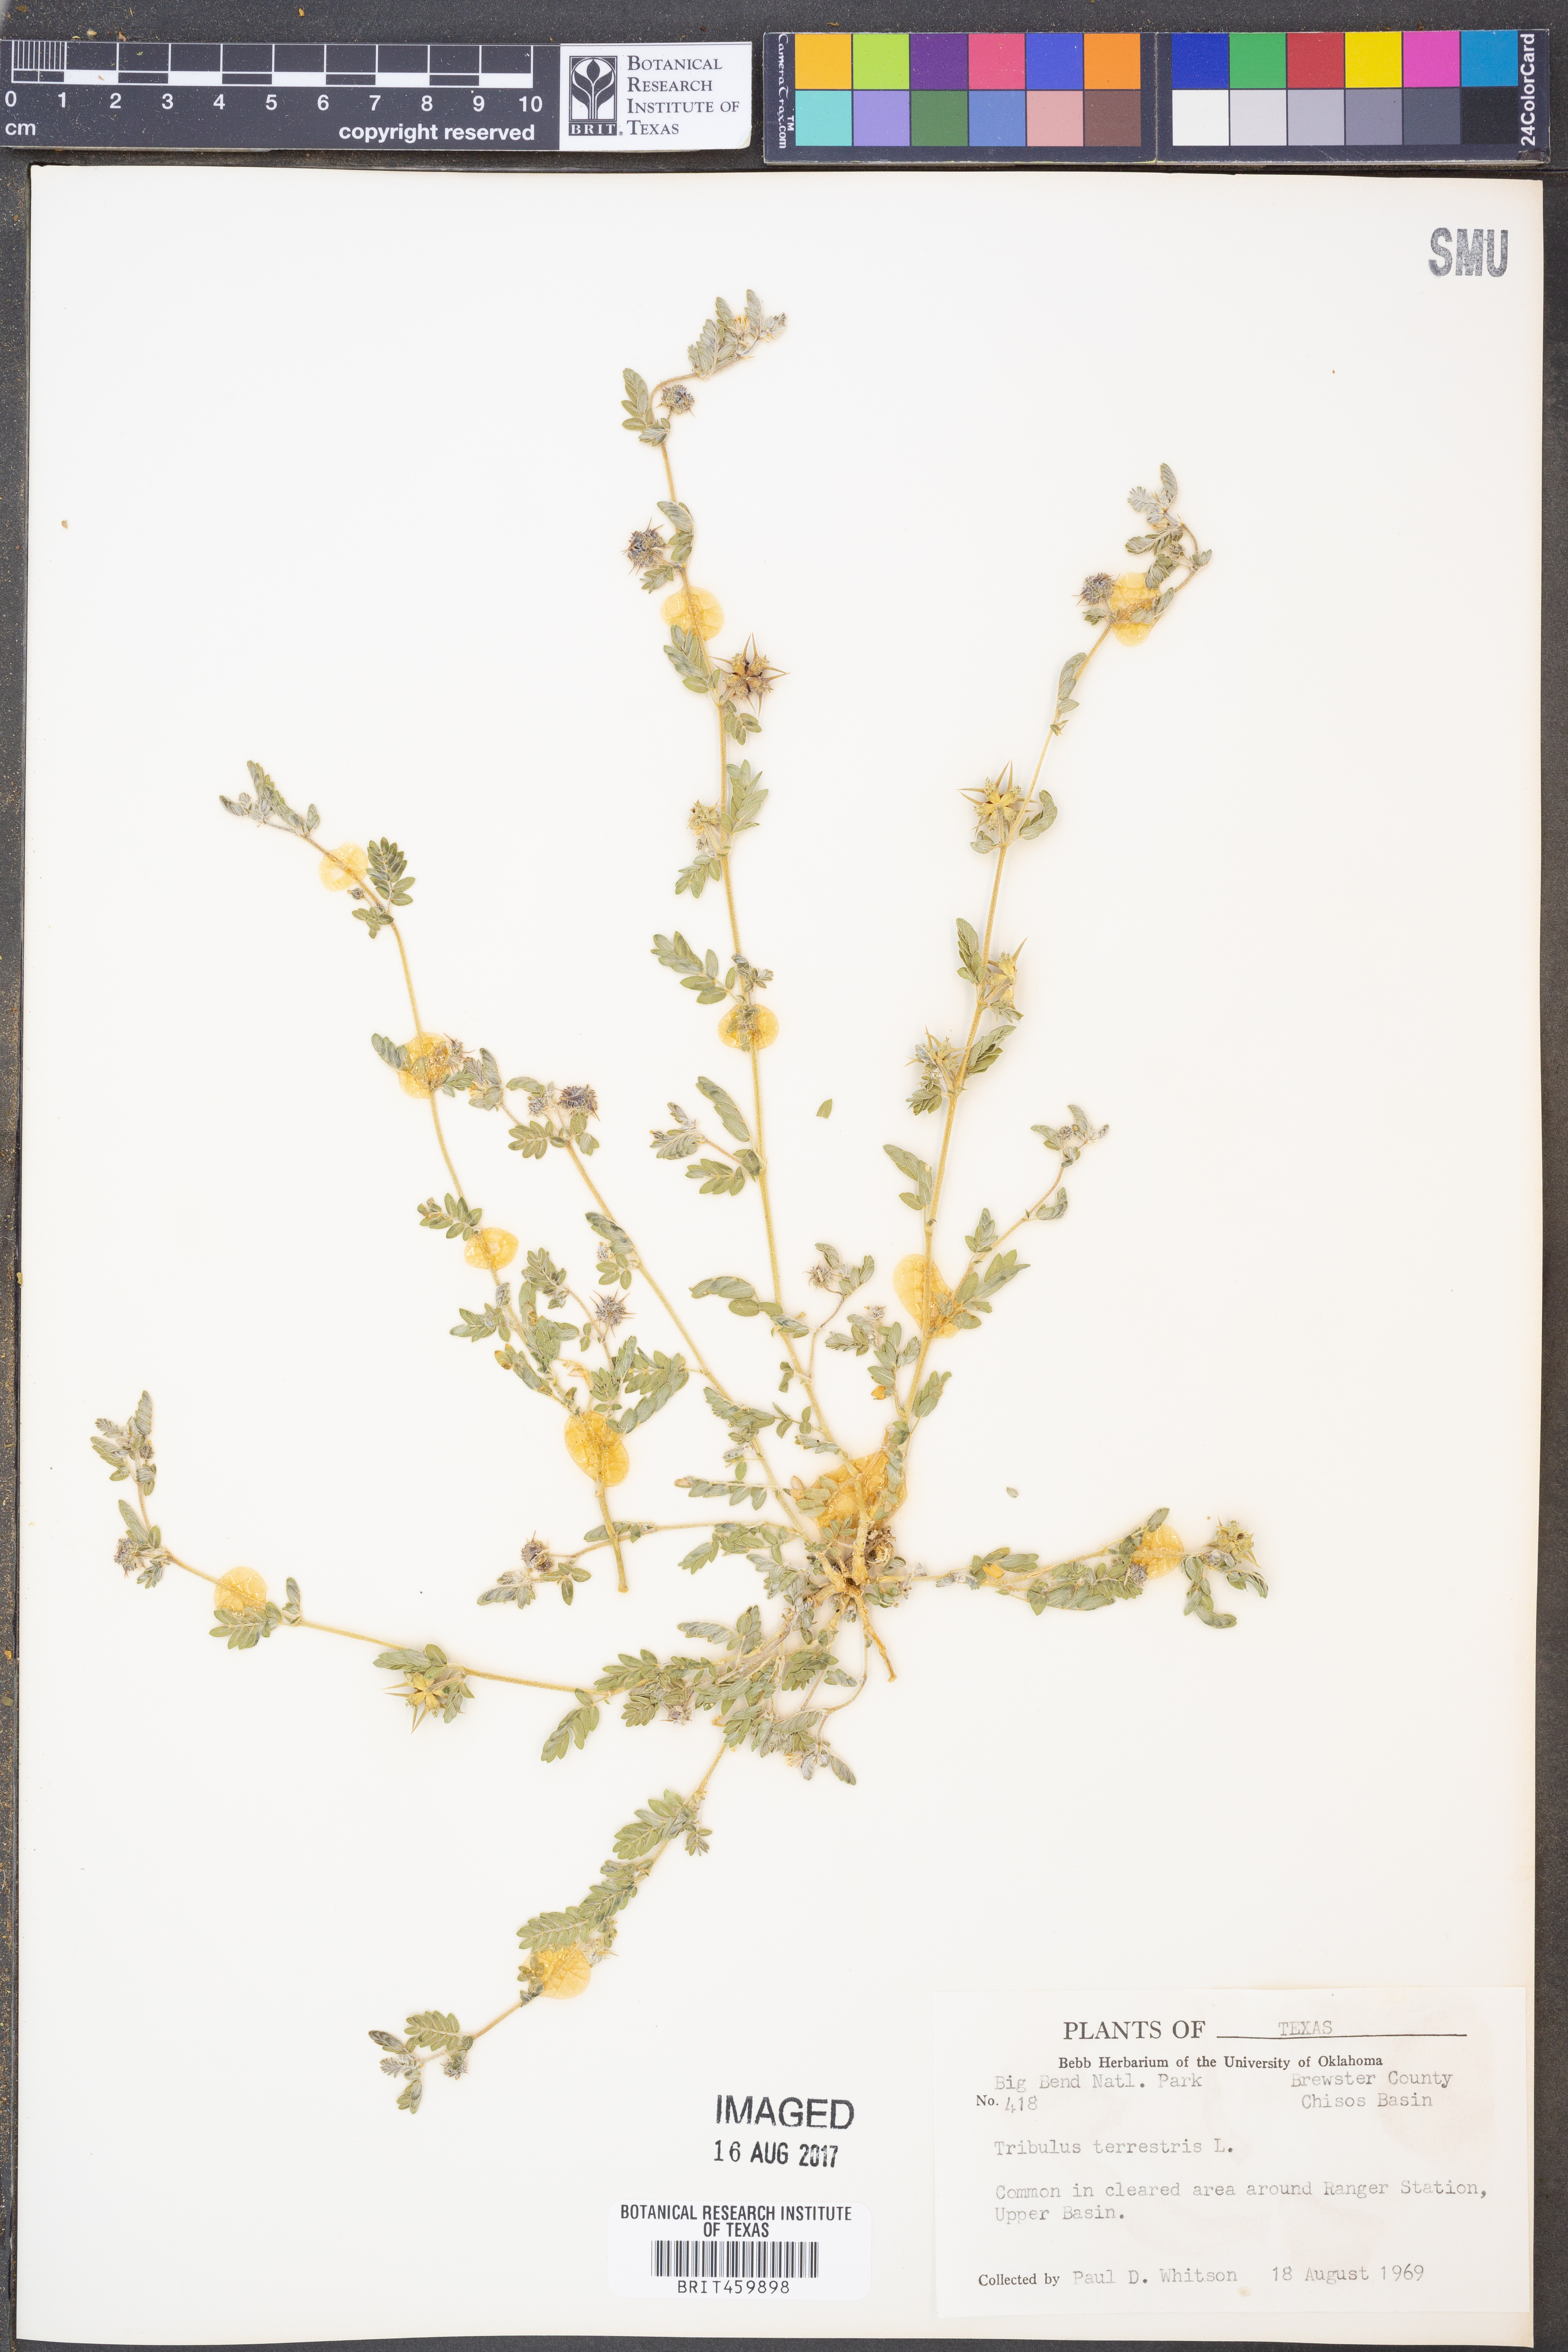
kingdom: Plantae
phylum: Tracheophyta
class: Magnoliopsida
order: Zygophyllales
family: Zygophyllaceae
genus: Tribulus
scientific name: Tribulus terrestris
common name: Puncturevine
